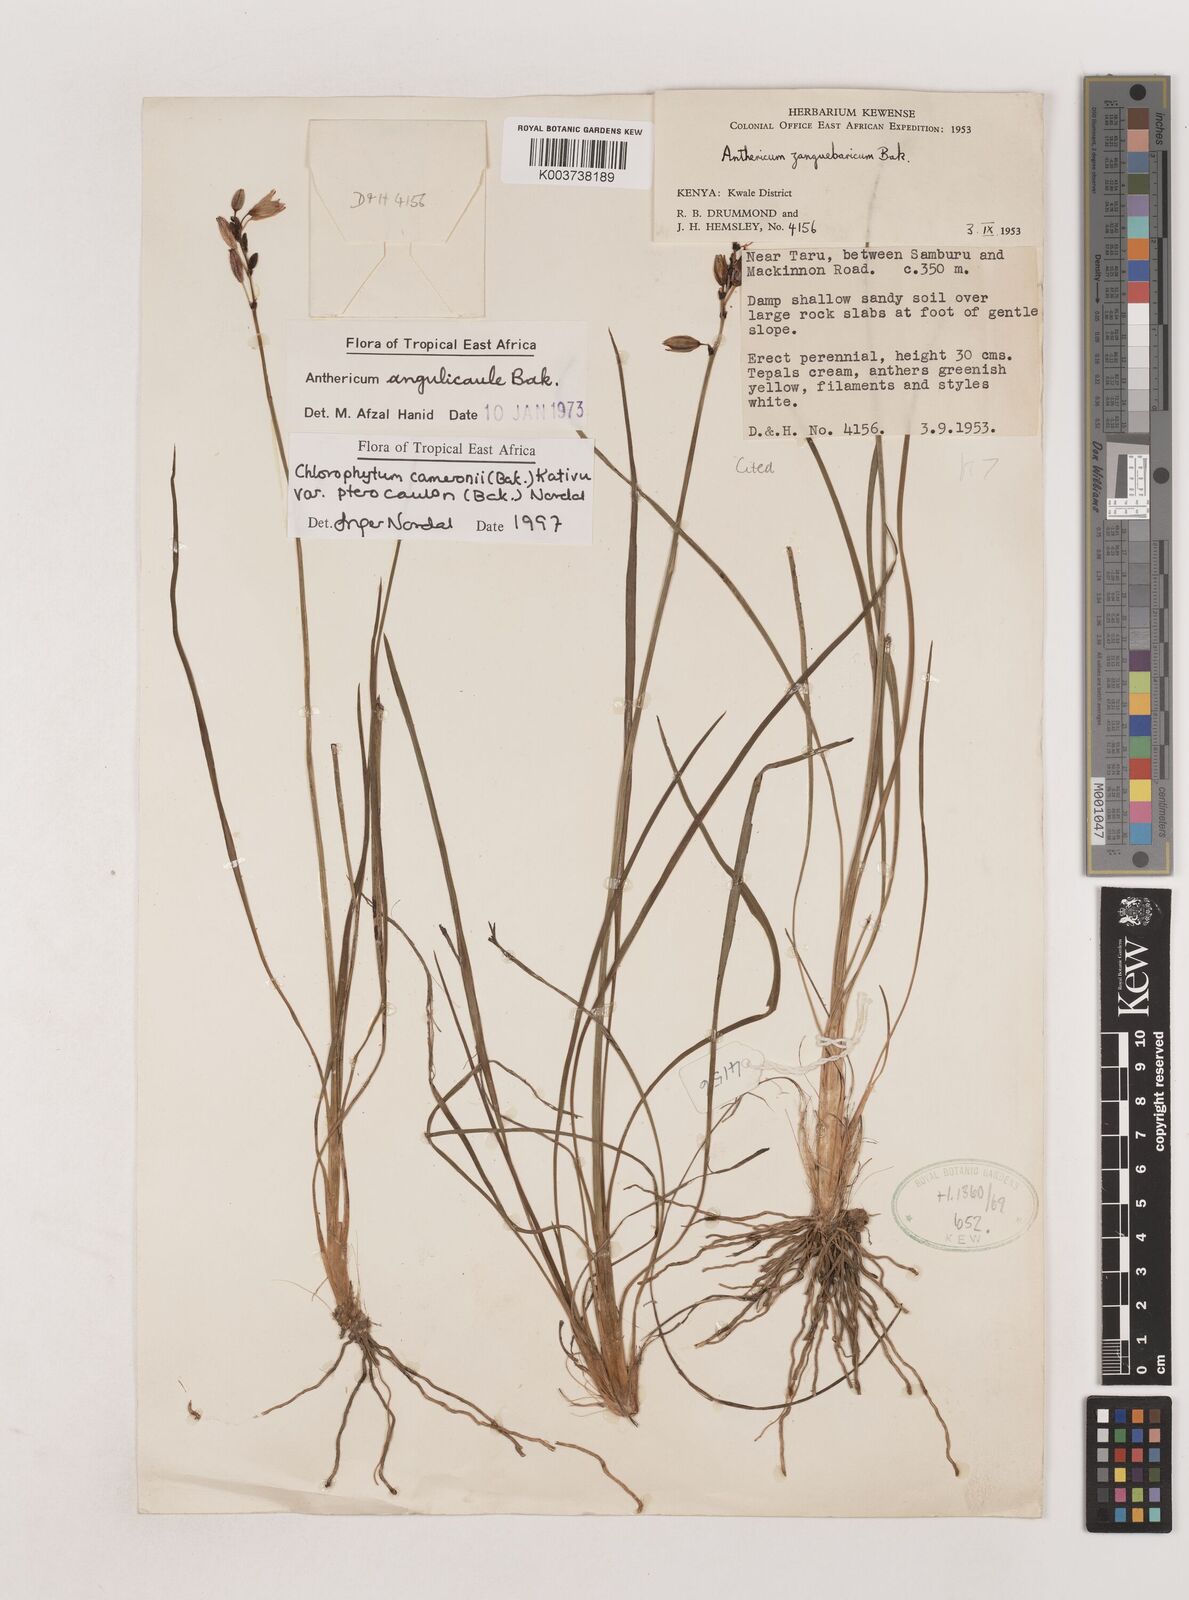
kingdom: Plantae
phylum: Tracheophyta
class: Liliopsida
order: Asparagales
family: Asparagaceae
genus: Chlorophytum
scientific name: Chlorophytum cameronii
